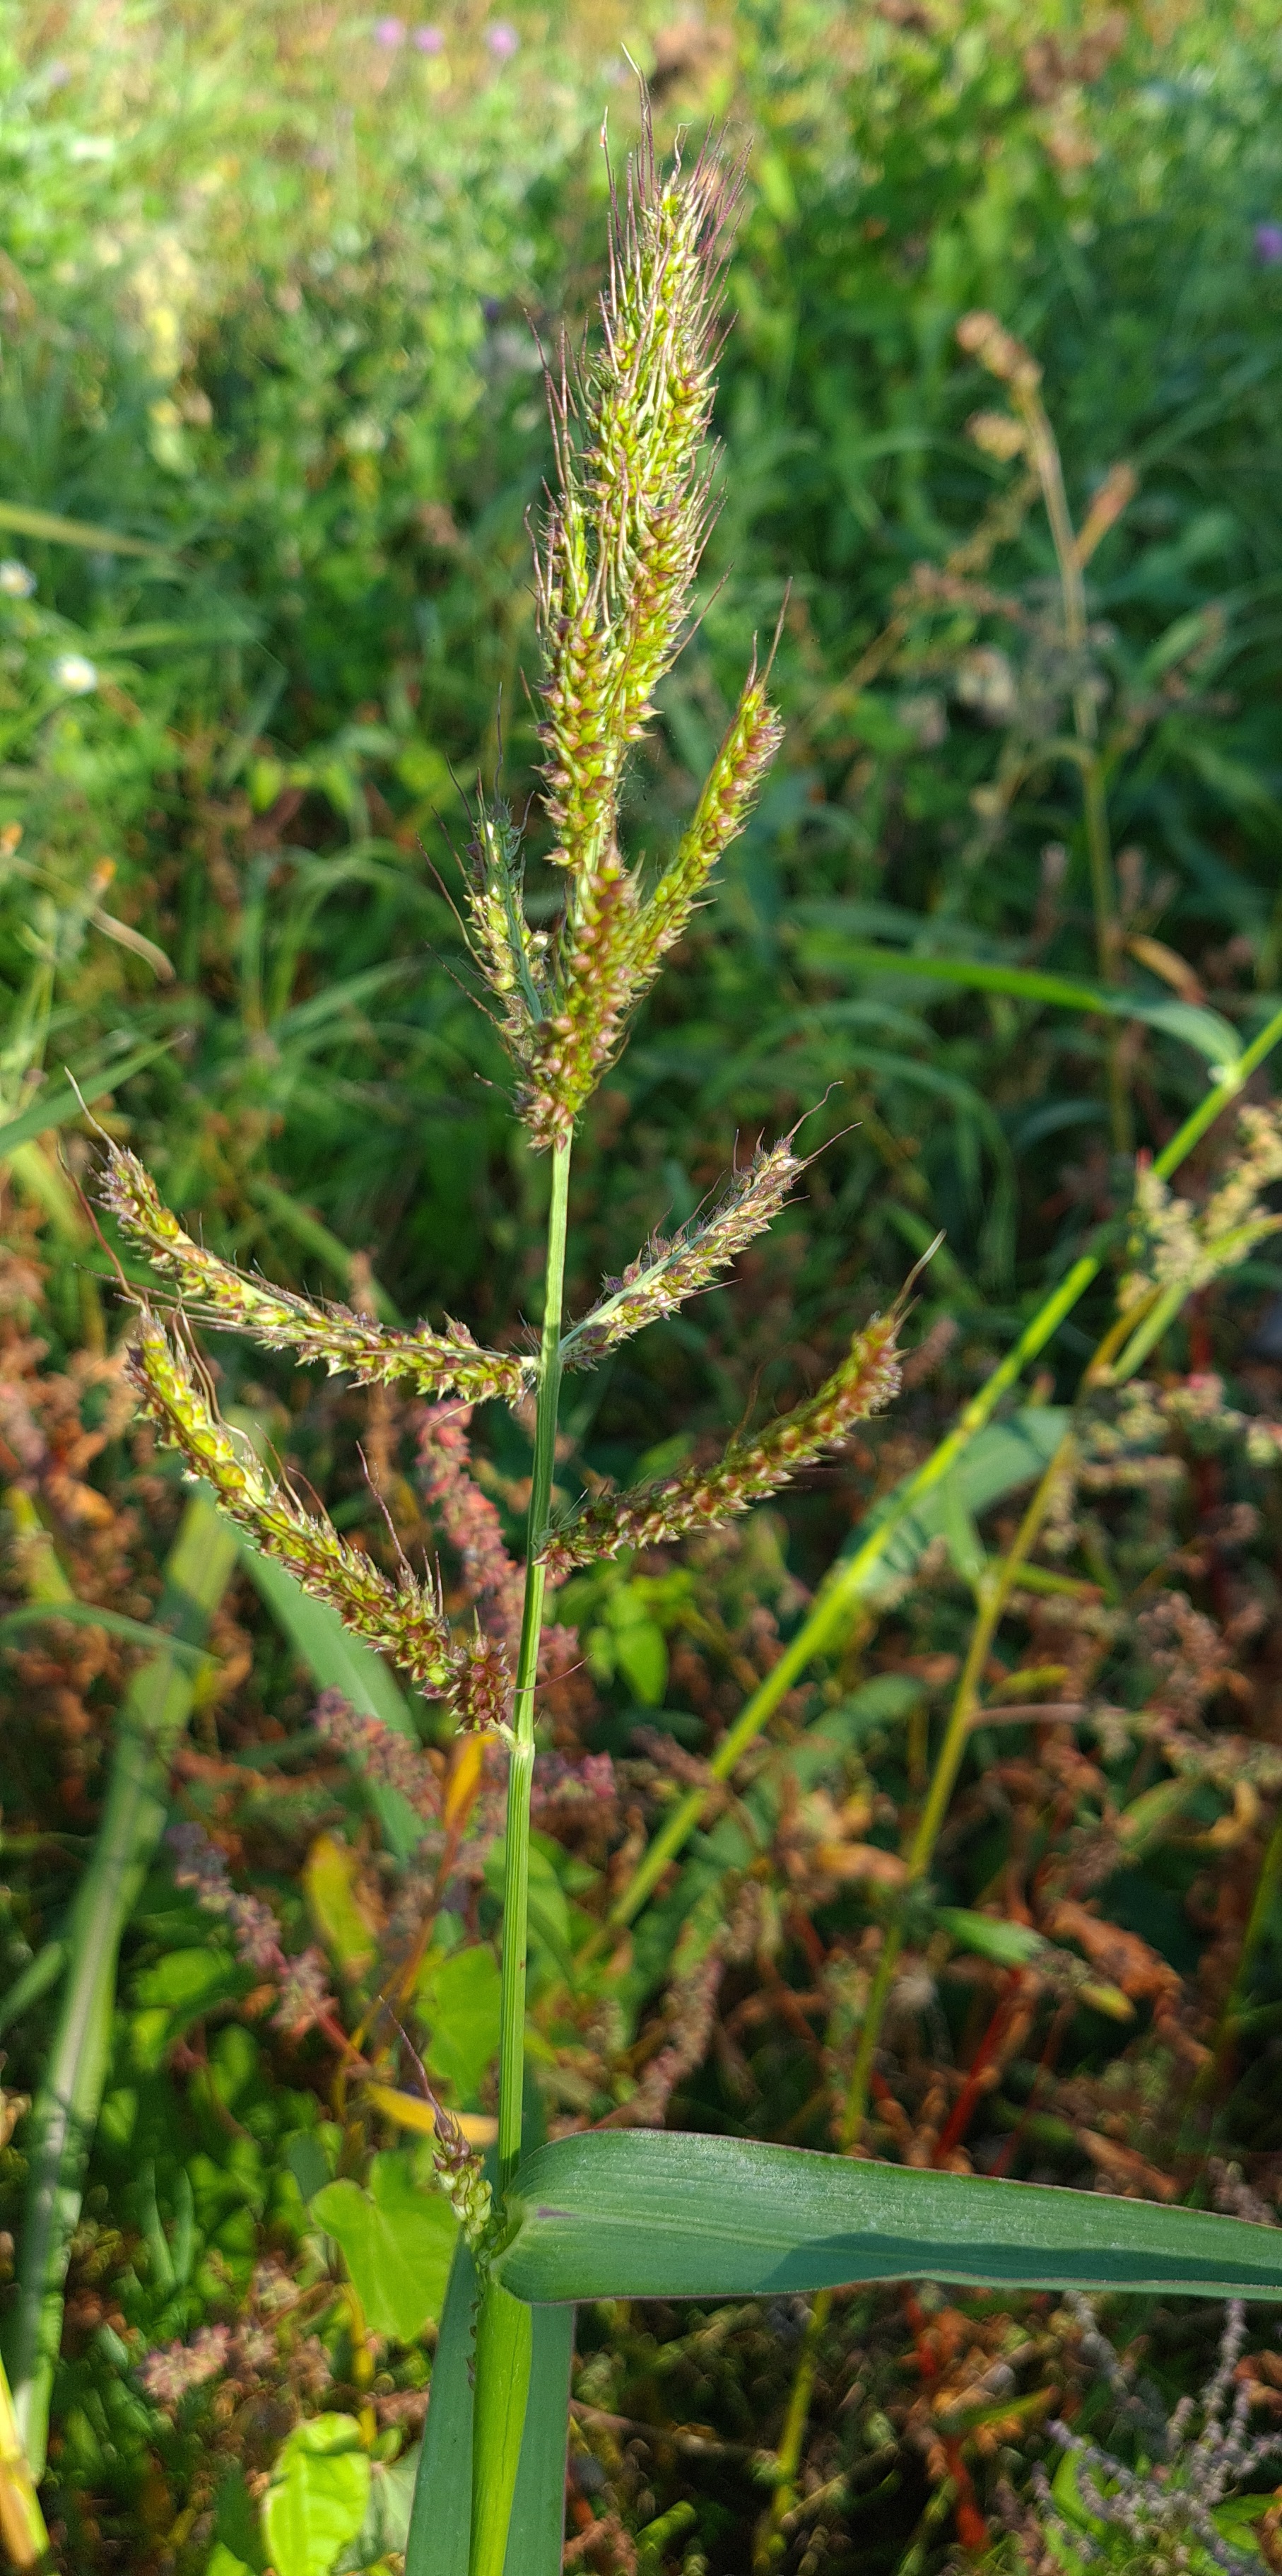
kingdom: Plantae
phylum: Tracheophyta
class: Liliopsida
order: Poales
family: Poaceae
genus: Echinochloa
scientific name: Echinochloa crus-galli
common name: Almindelig hanespore
